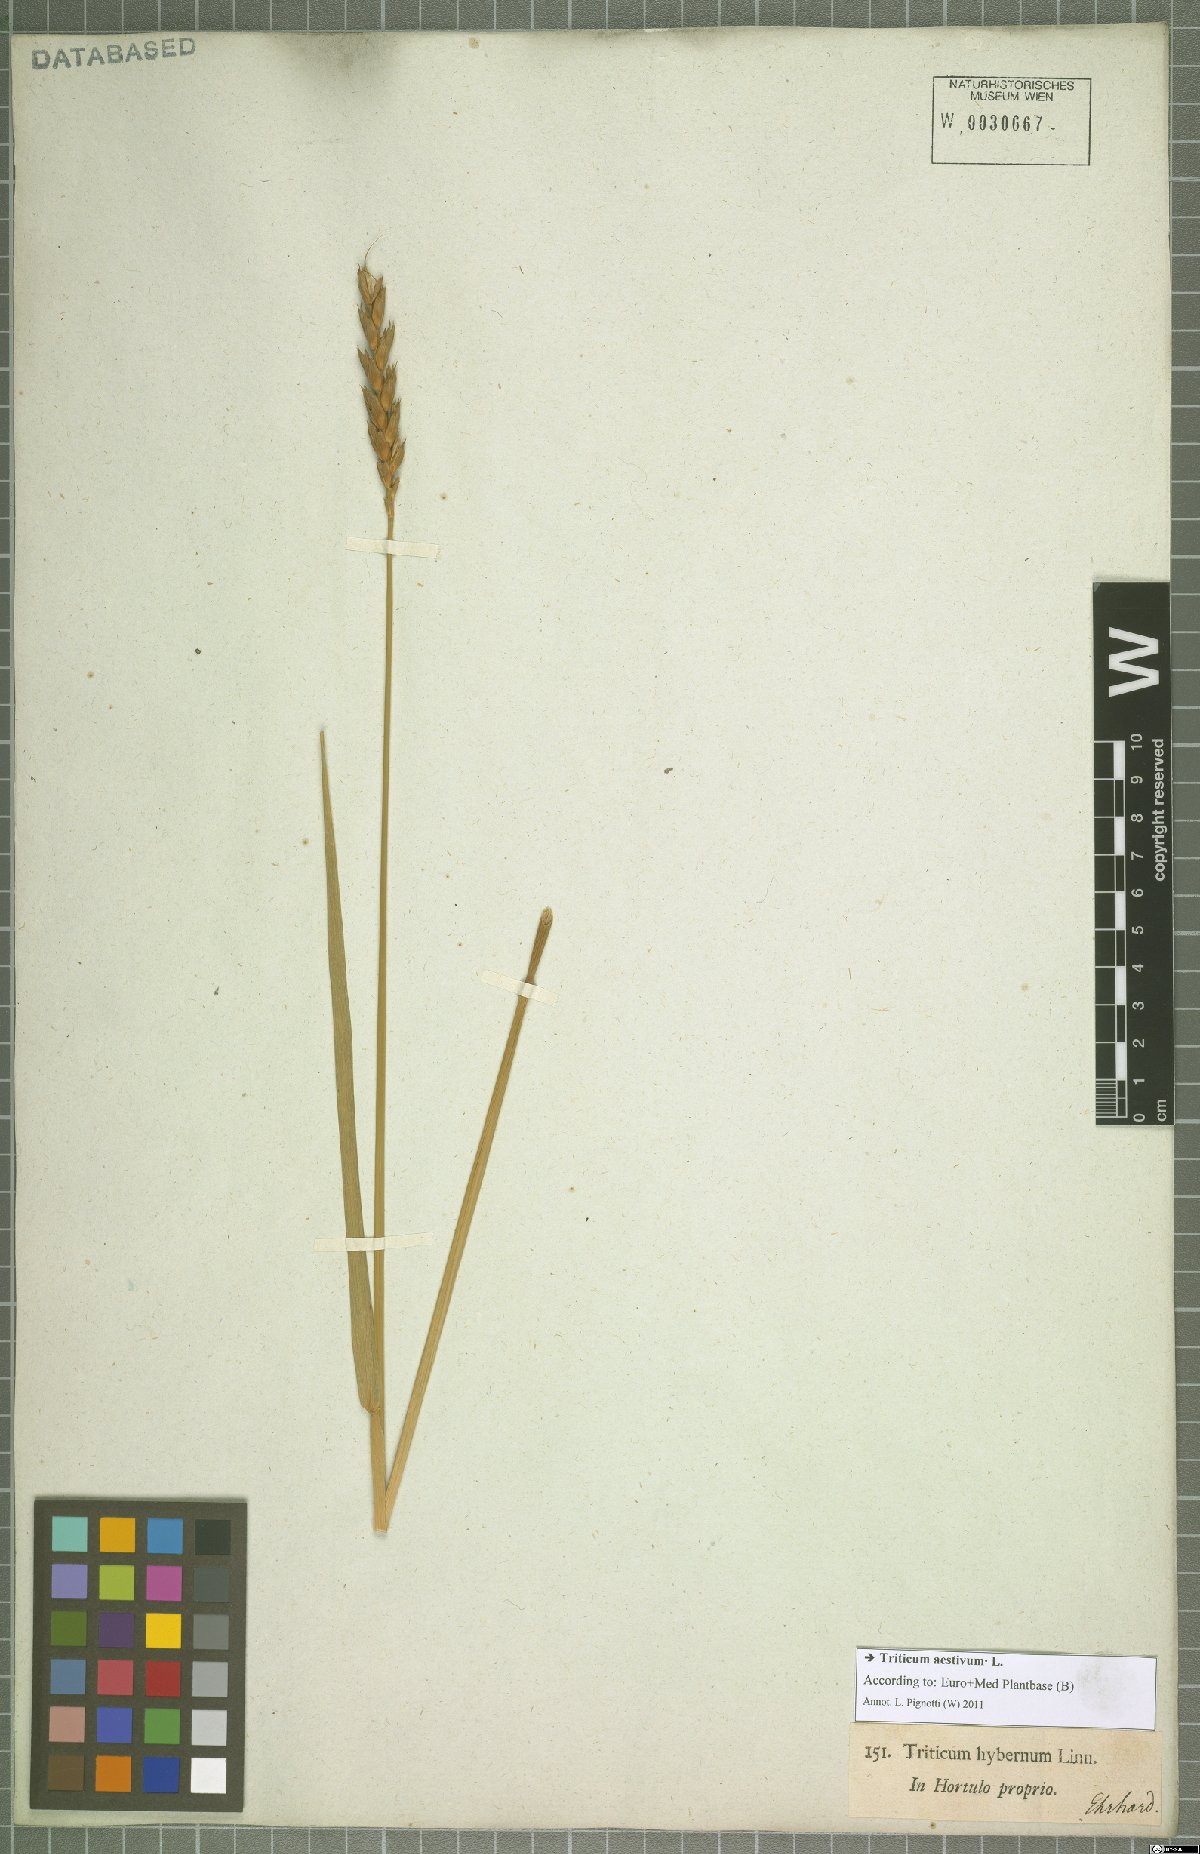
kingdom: Plantae
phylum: Tracheophyta
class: Liliopsida
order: Poales
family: Poaceae
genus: Triticum
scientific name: Triticum aestivum
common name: Common wheat
